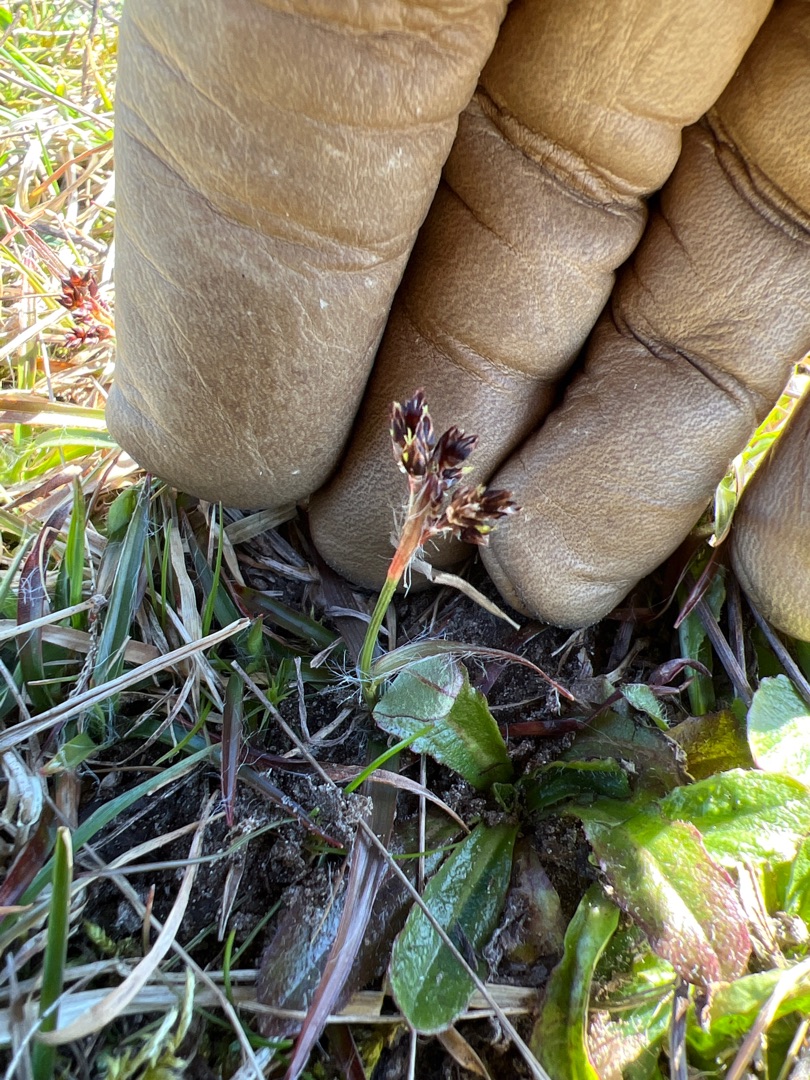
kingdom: Plantae
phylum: Tracheophyta
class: Liliopsida
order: Poales
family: Juncaceae
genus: Luzula
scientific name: Luzula campestris
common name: Mark-frytle
